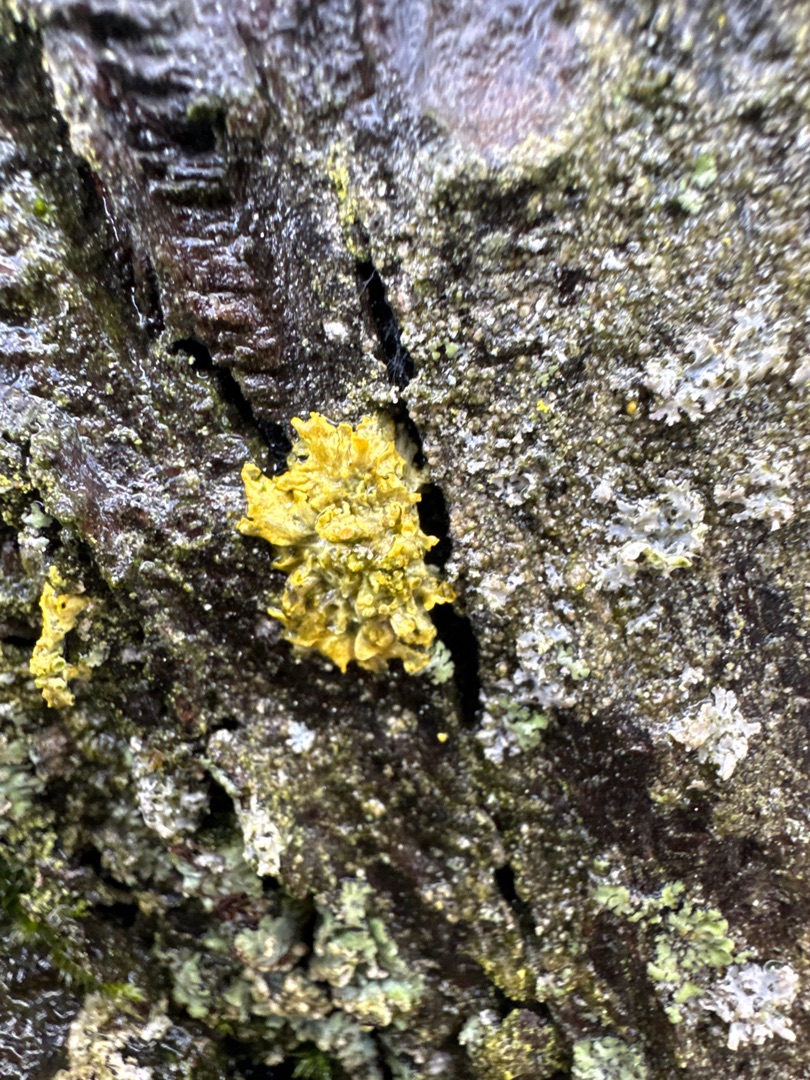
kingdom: Fungi
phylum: Ascomycota
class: Lecanoromycetes
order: Teloschistales
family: Teloschistaceae
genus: Xanthoria
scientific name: Xanthoria parietina
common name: Almindelig væggelav
